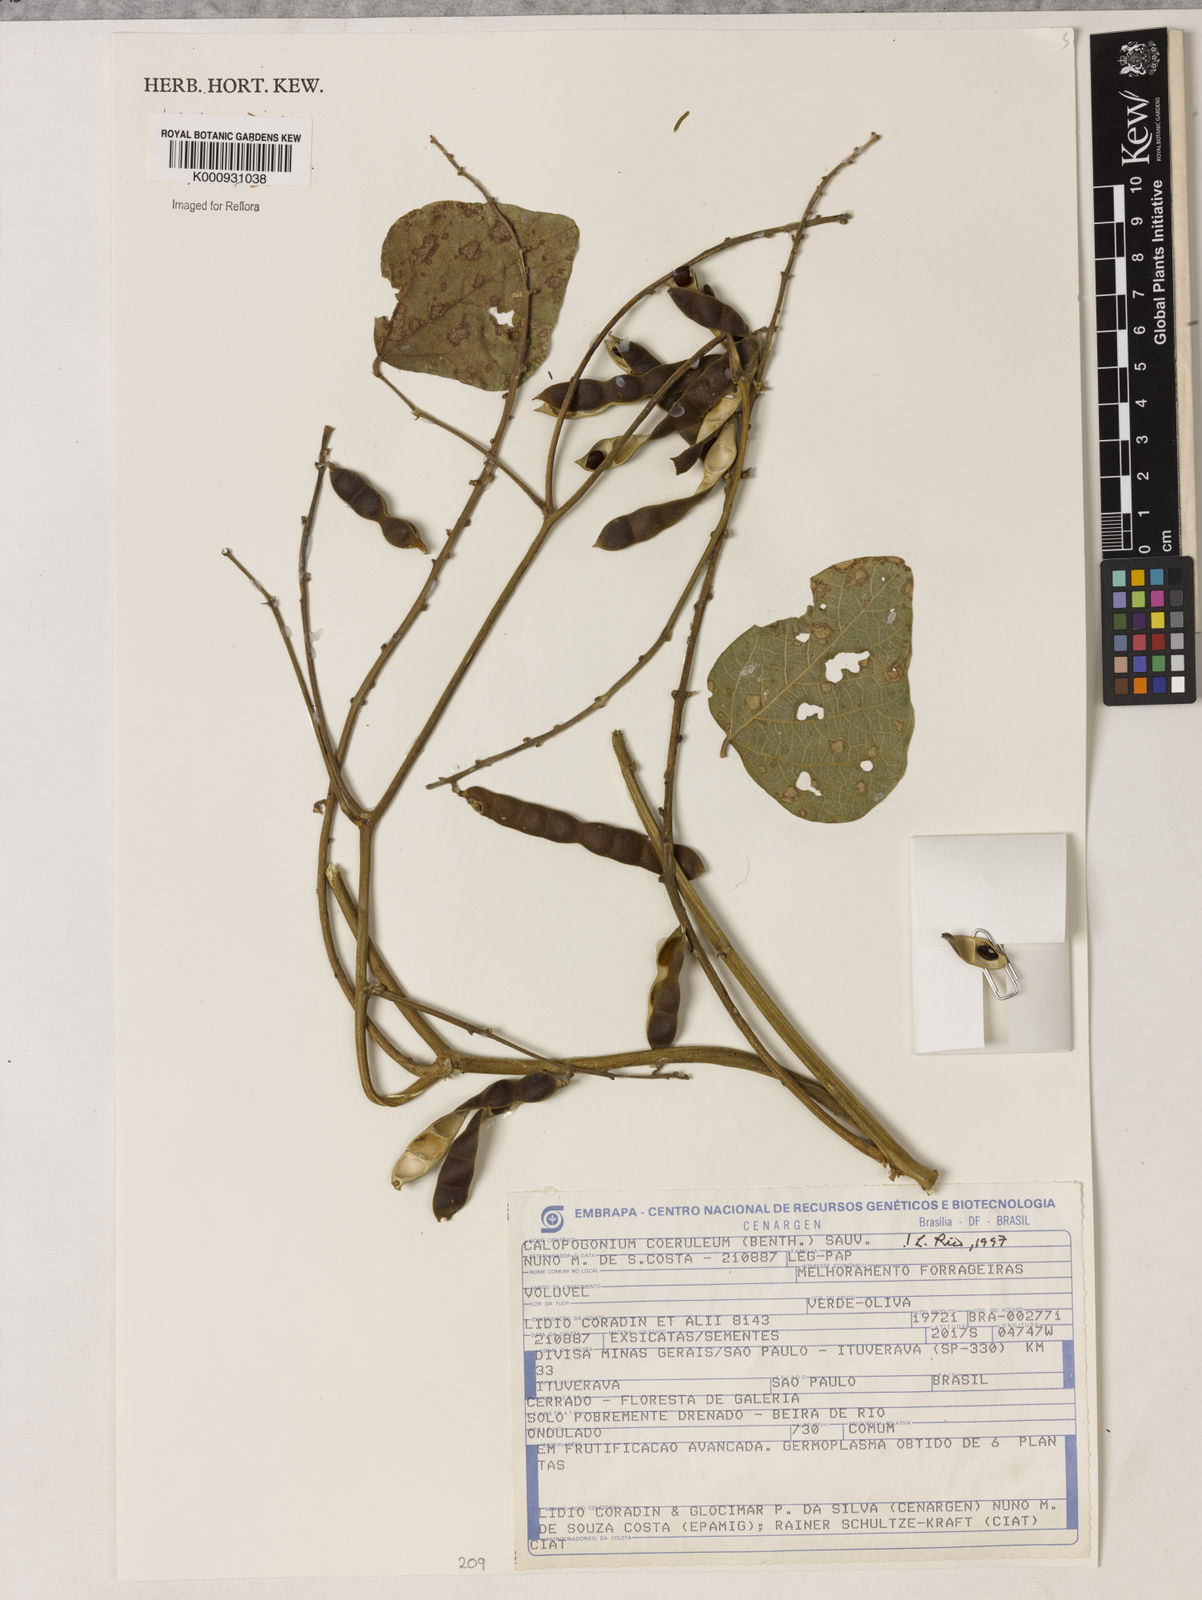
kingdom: Plantae
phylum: Tracheophyta
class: Magnoliopsida
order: Fabales
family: Fabaceae
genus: Calopogonium
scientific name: Calopogonium caeruleum
